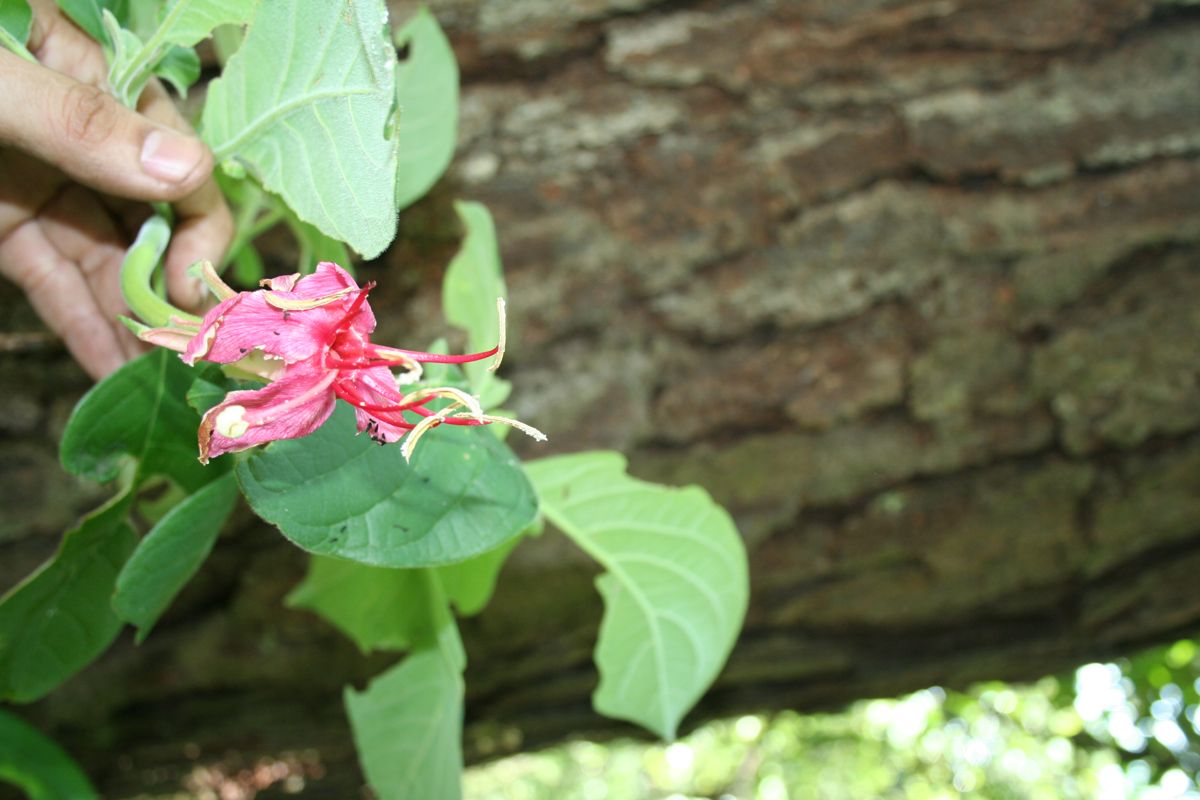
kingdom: Plantae
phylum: Tracheophyta
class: Magnoliopsida
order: Myrtales
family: Onagraceae
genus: Hauya
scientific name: Hauya elegans
